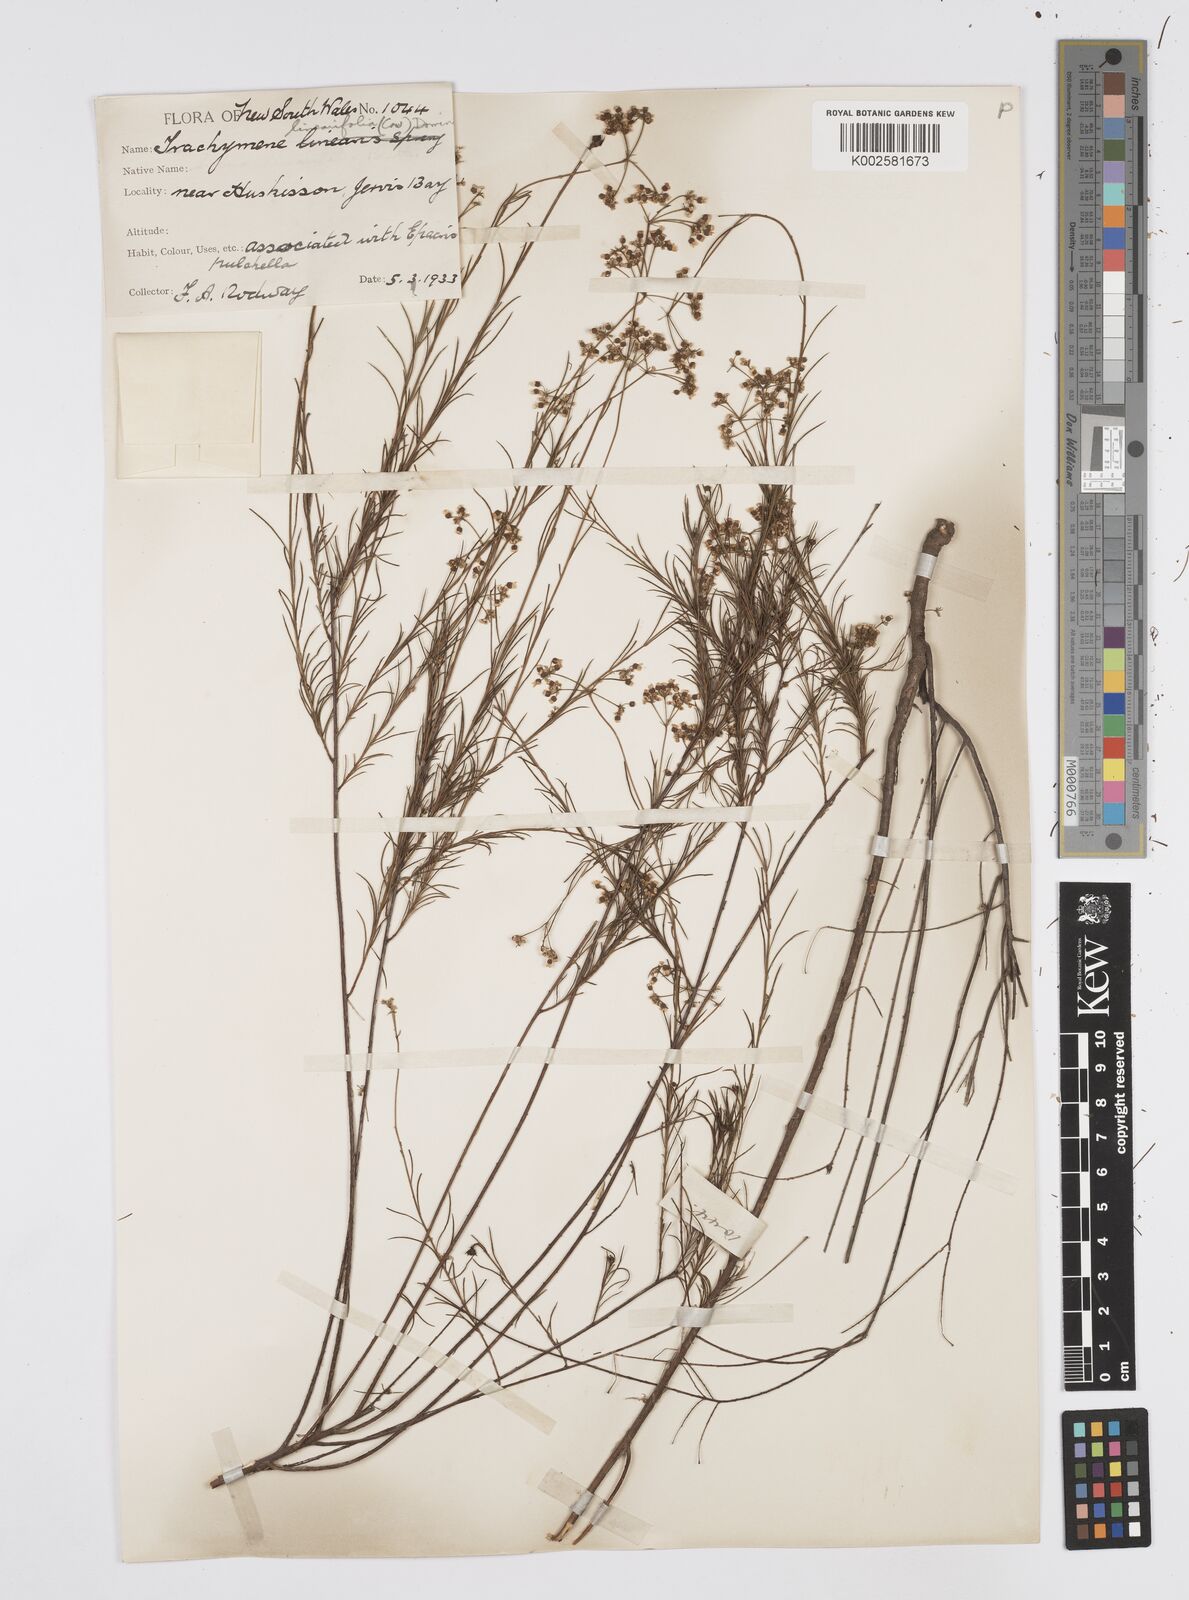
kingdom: Plantae
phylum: Tracheophyta
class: Magnoliopsida
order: Apiales
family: Apiaceae
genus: Platysace
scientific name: Platysace linearifolia
